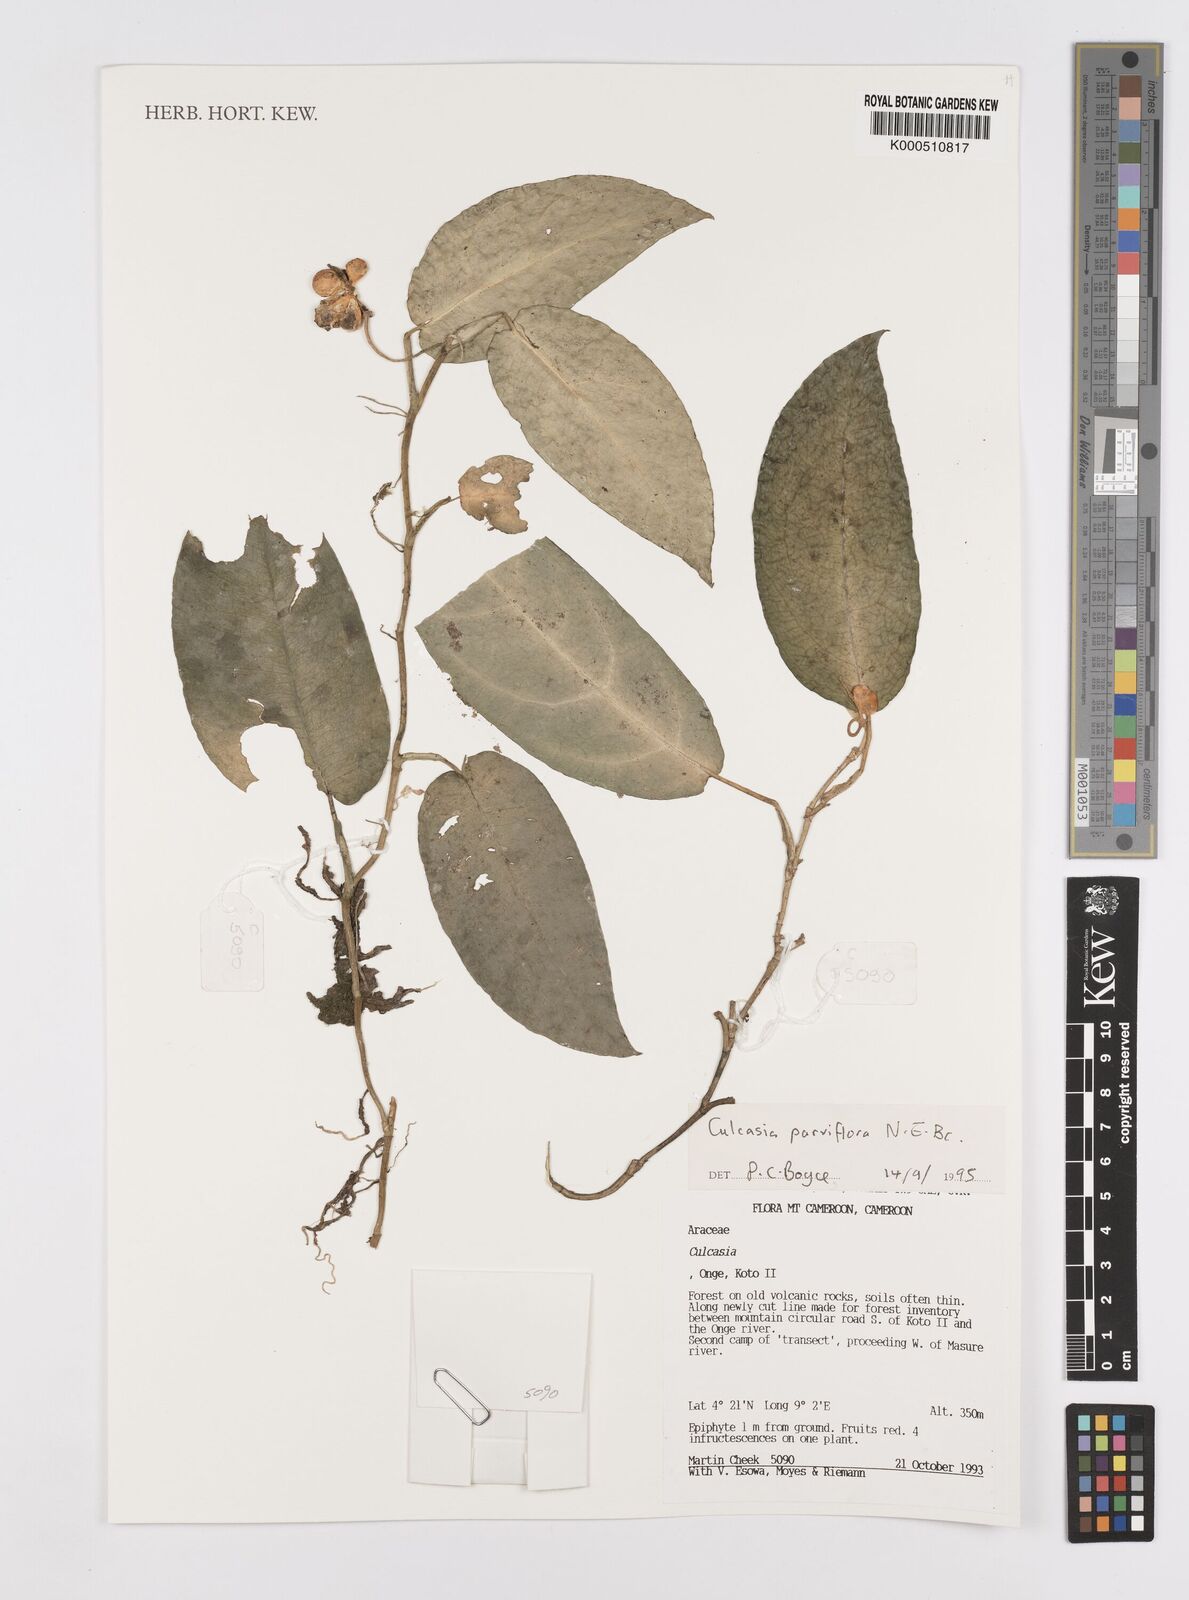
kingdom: Plantae
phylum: Tracheophyta
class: Liliopsida
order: Alismatales
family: Araceae
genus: Culcasia
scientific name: Culcasia parviflora
